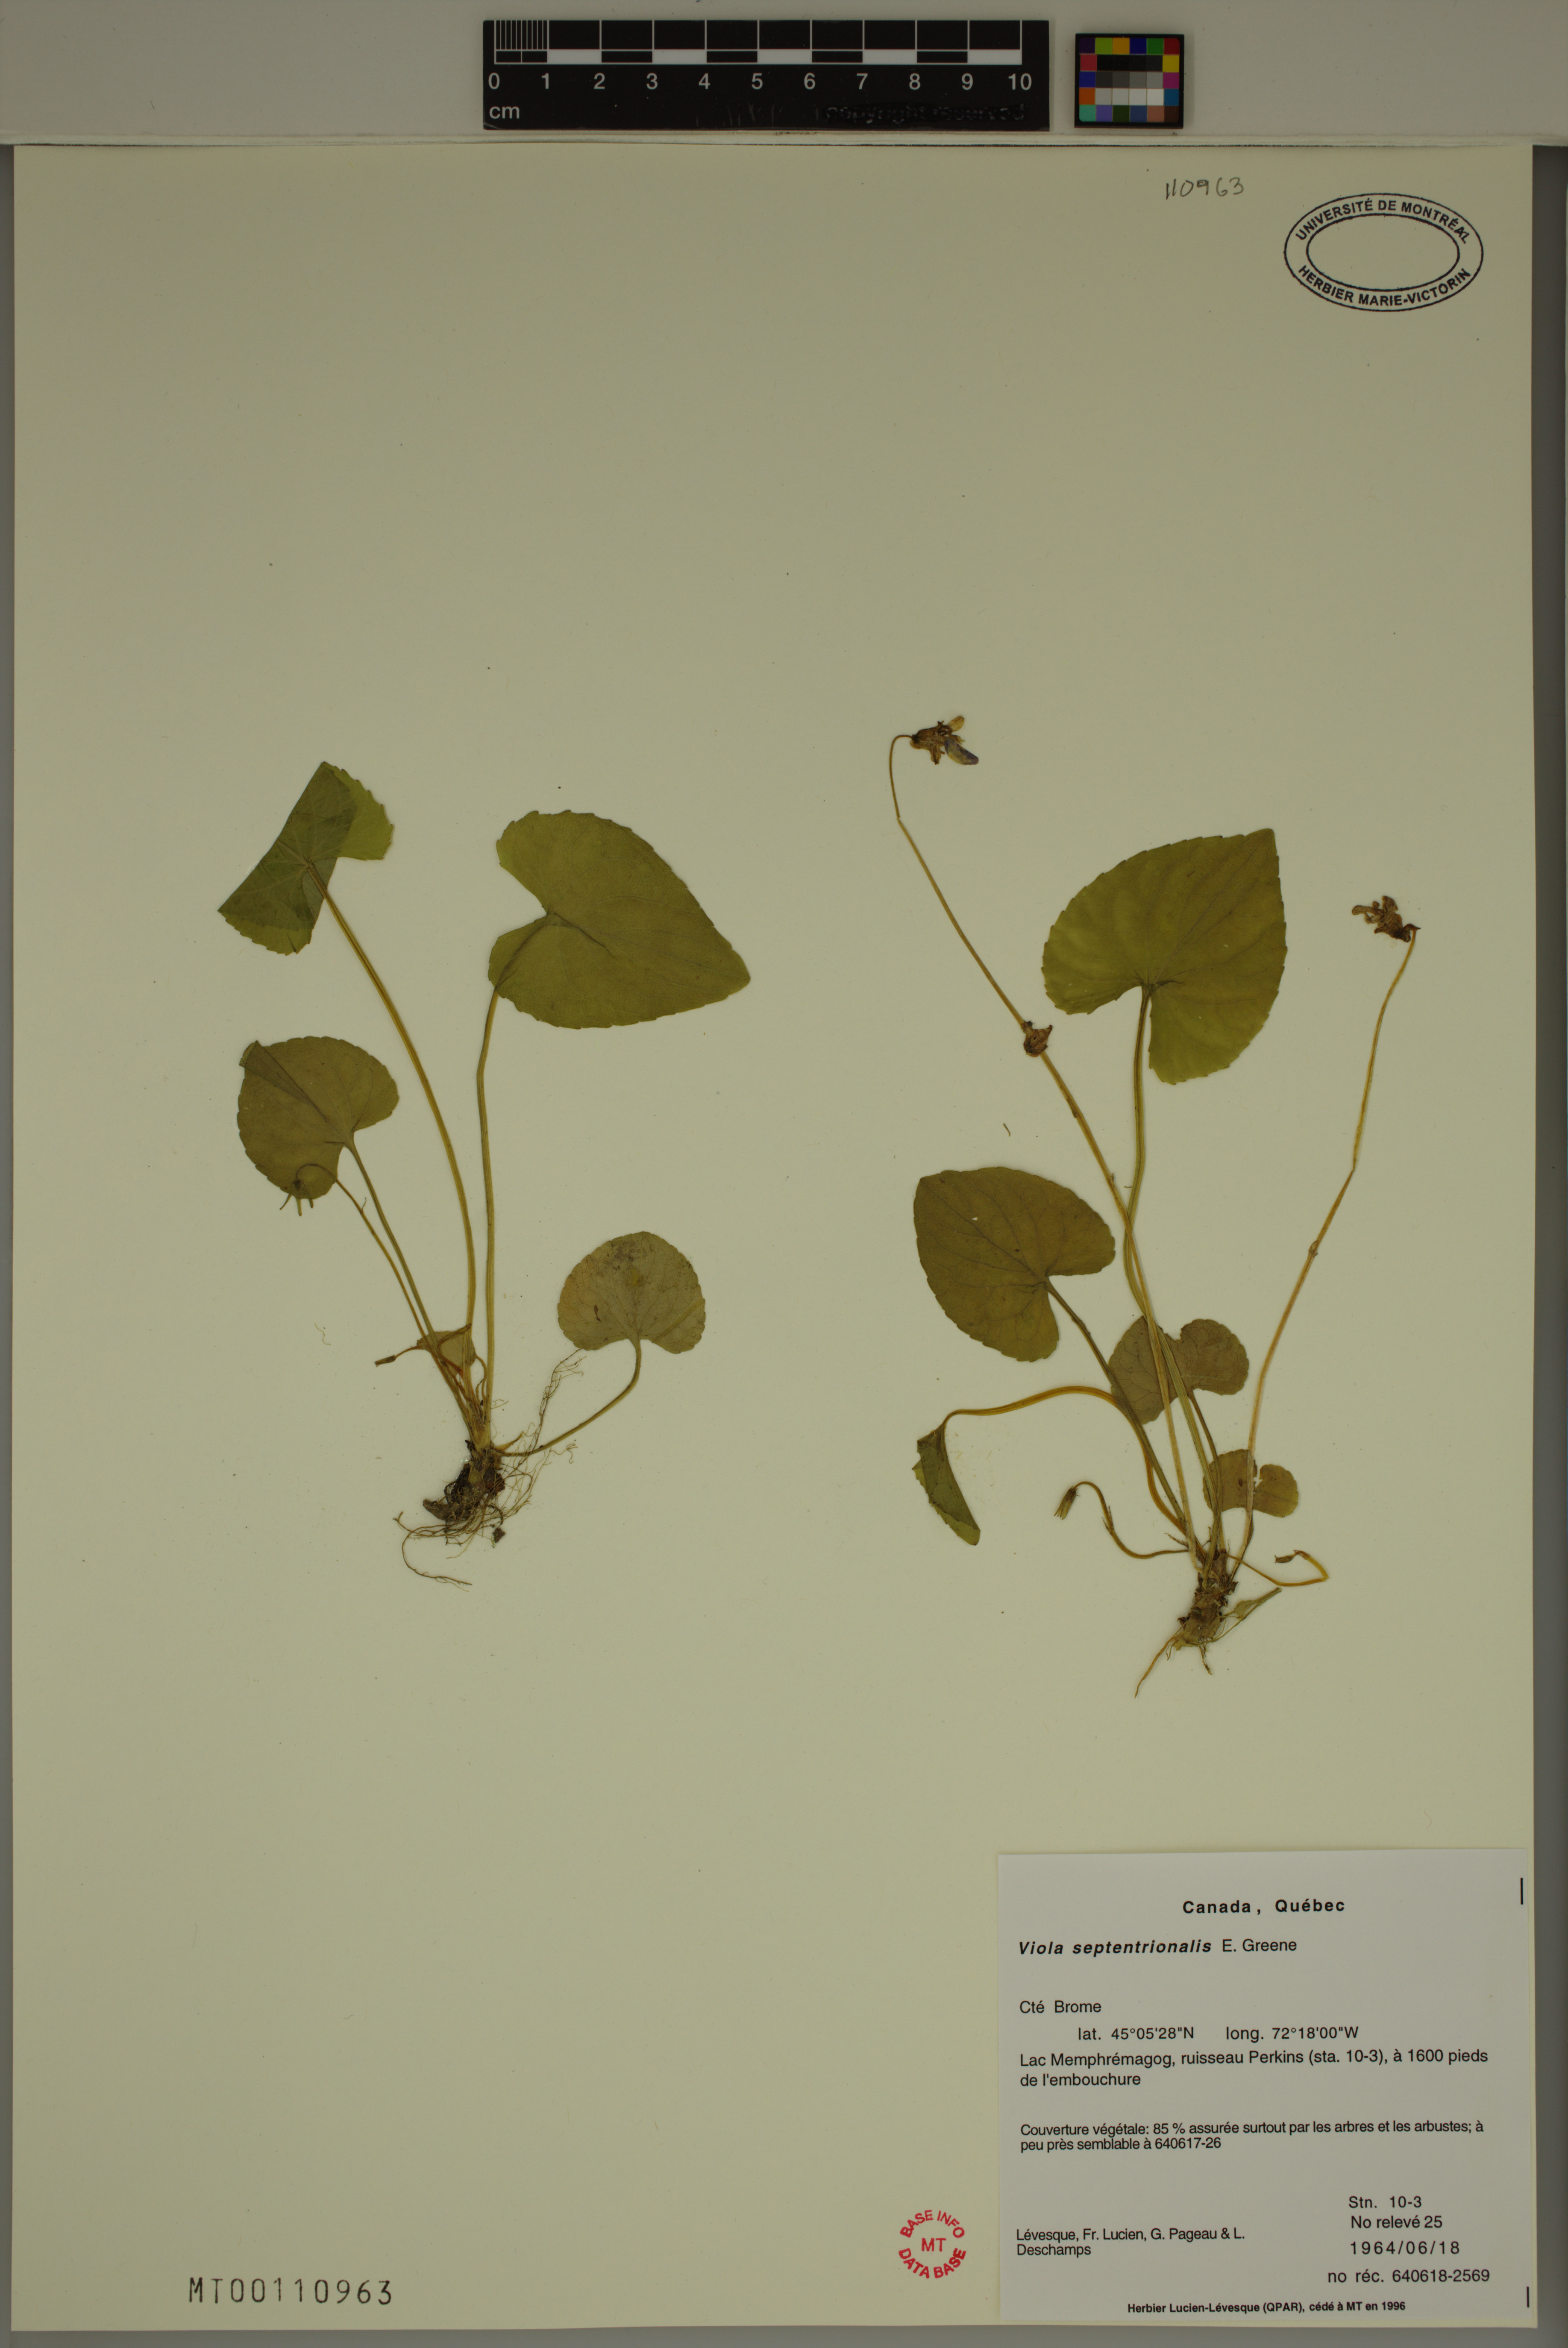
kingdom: Plantae
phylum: Tracheophyta
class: Magnoliopsida
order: Malpighiales
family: Violaceae
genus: Viola
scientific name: Viola sororia
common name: Dooryard violet
